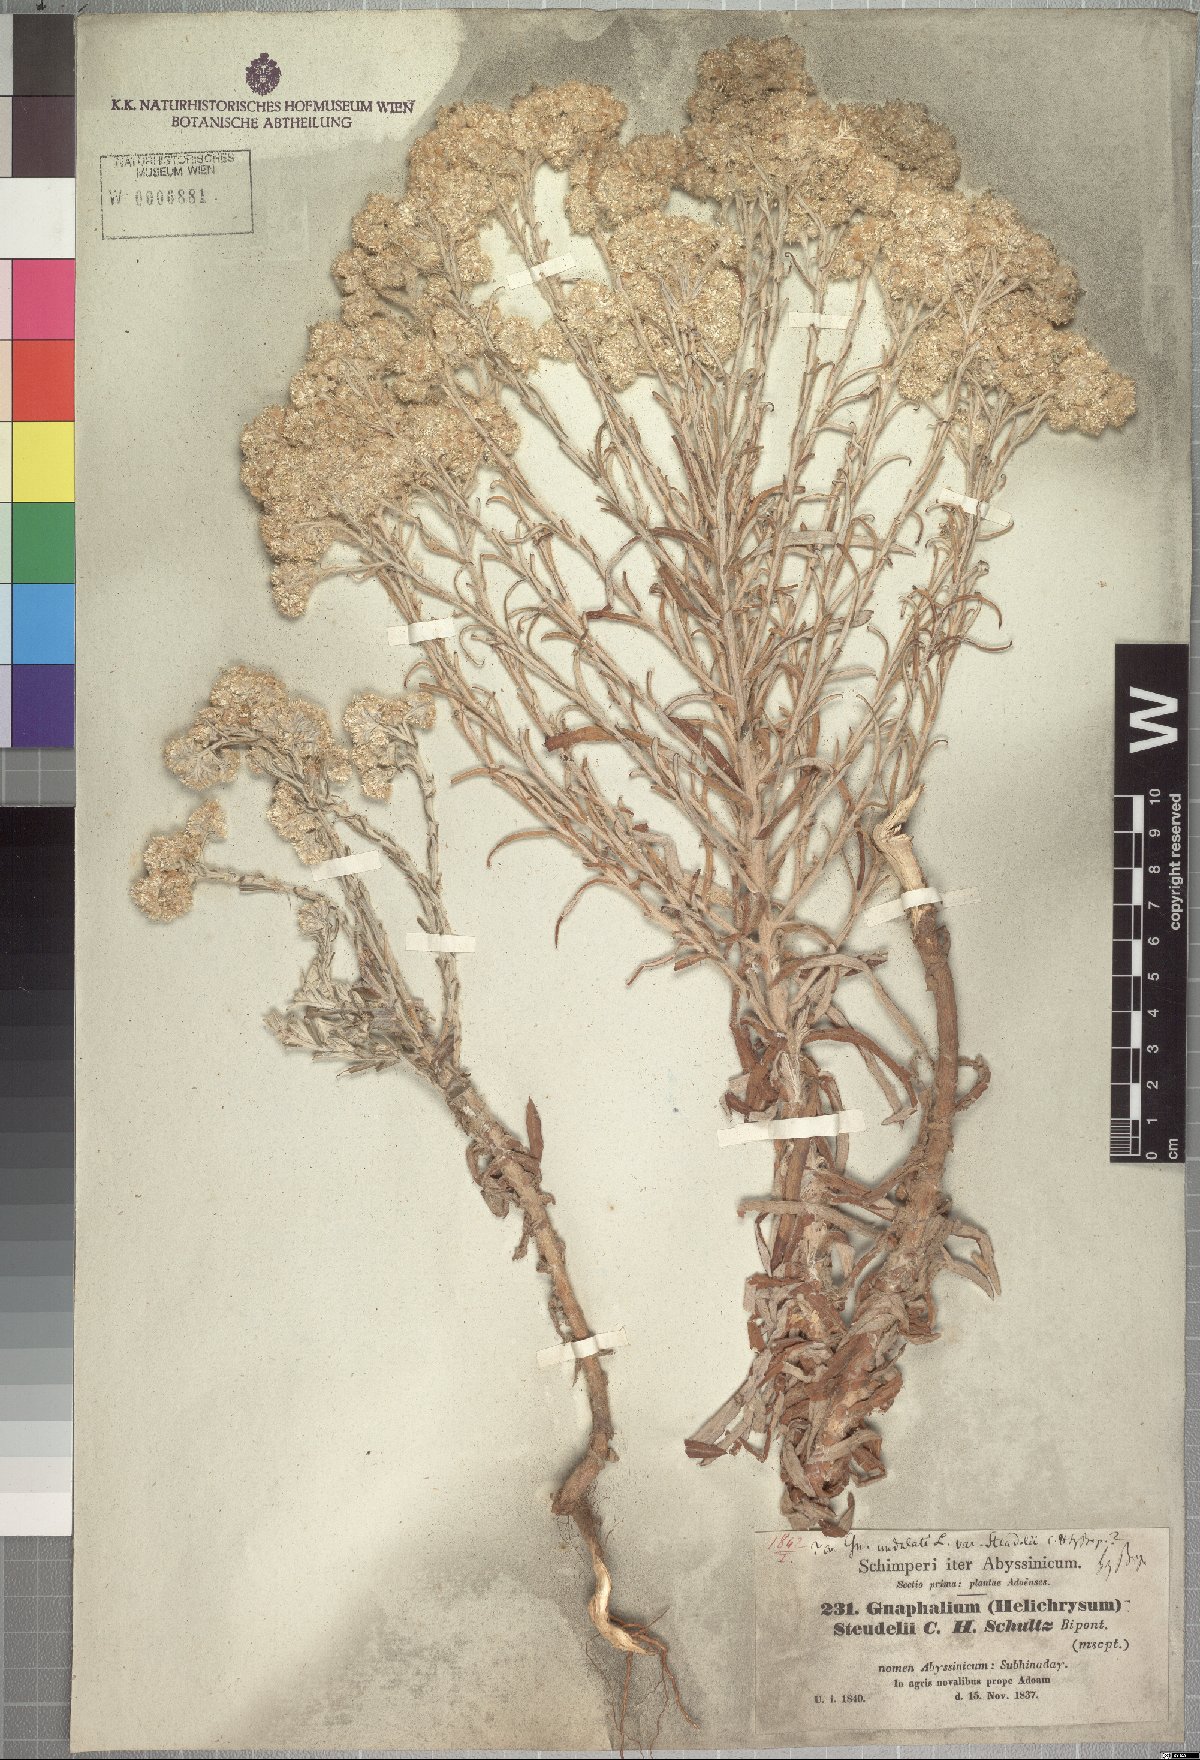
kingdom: Plantae
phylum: Tracheophyta
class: Magnoliopsida
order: Asterales
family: Asteraceae
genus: Pseudognaphalium
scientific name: Pseudognaphalium oligandrum
